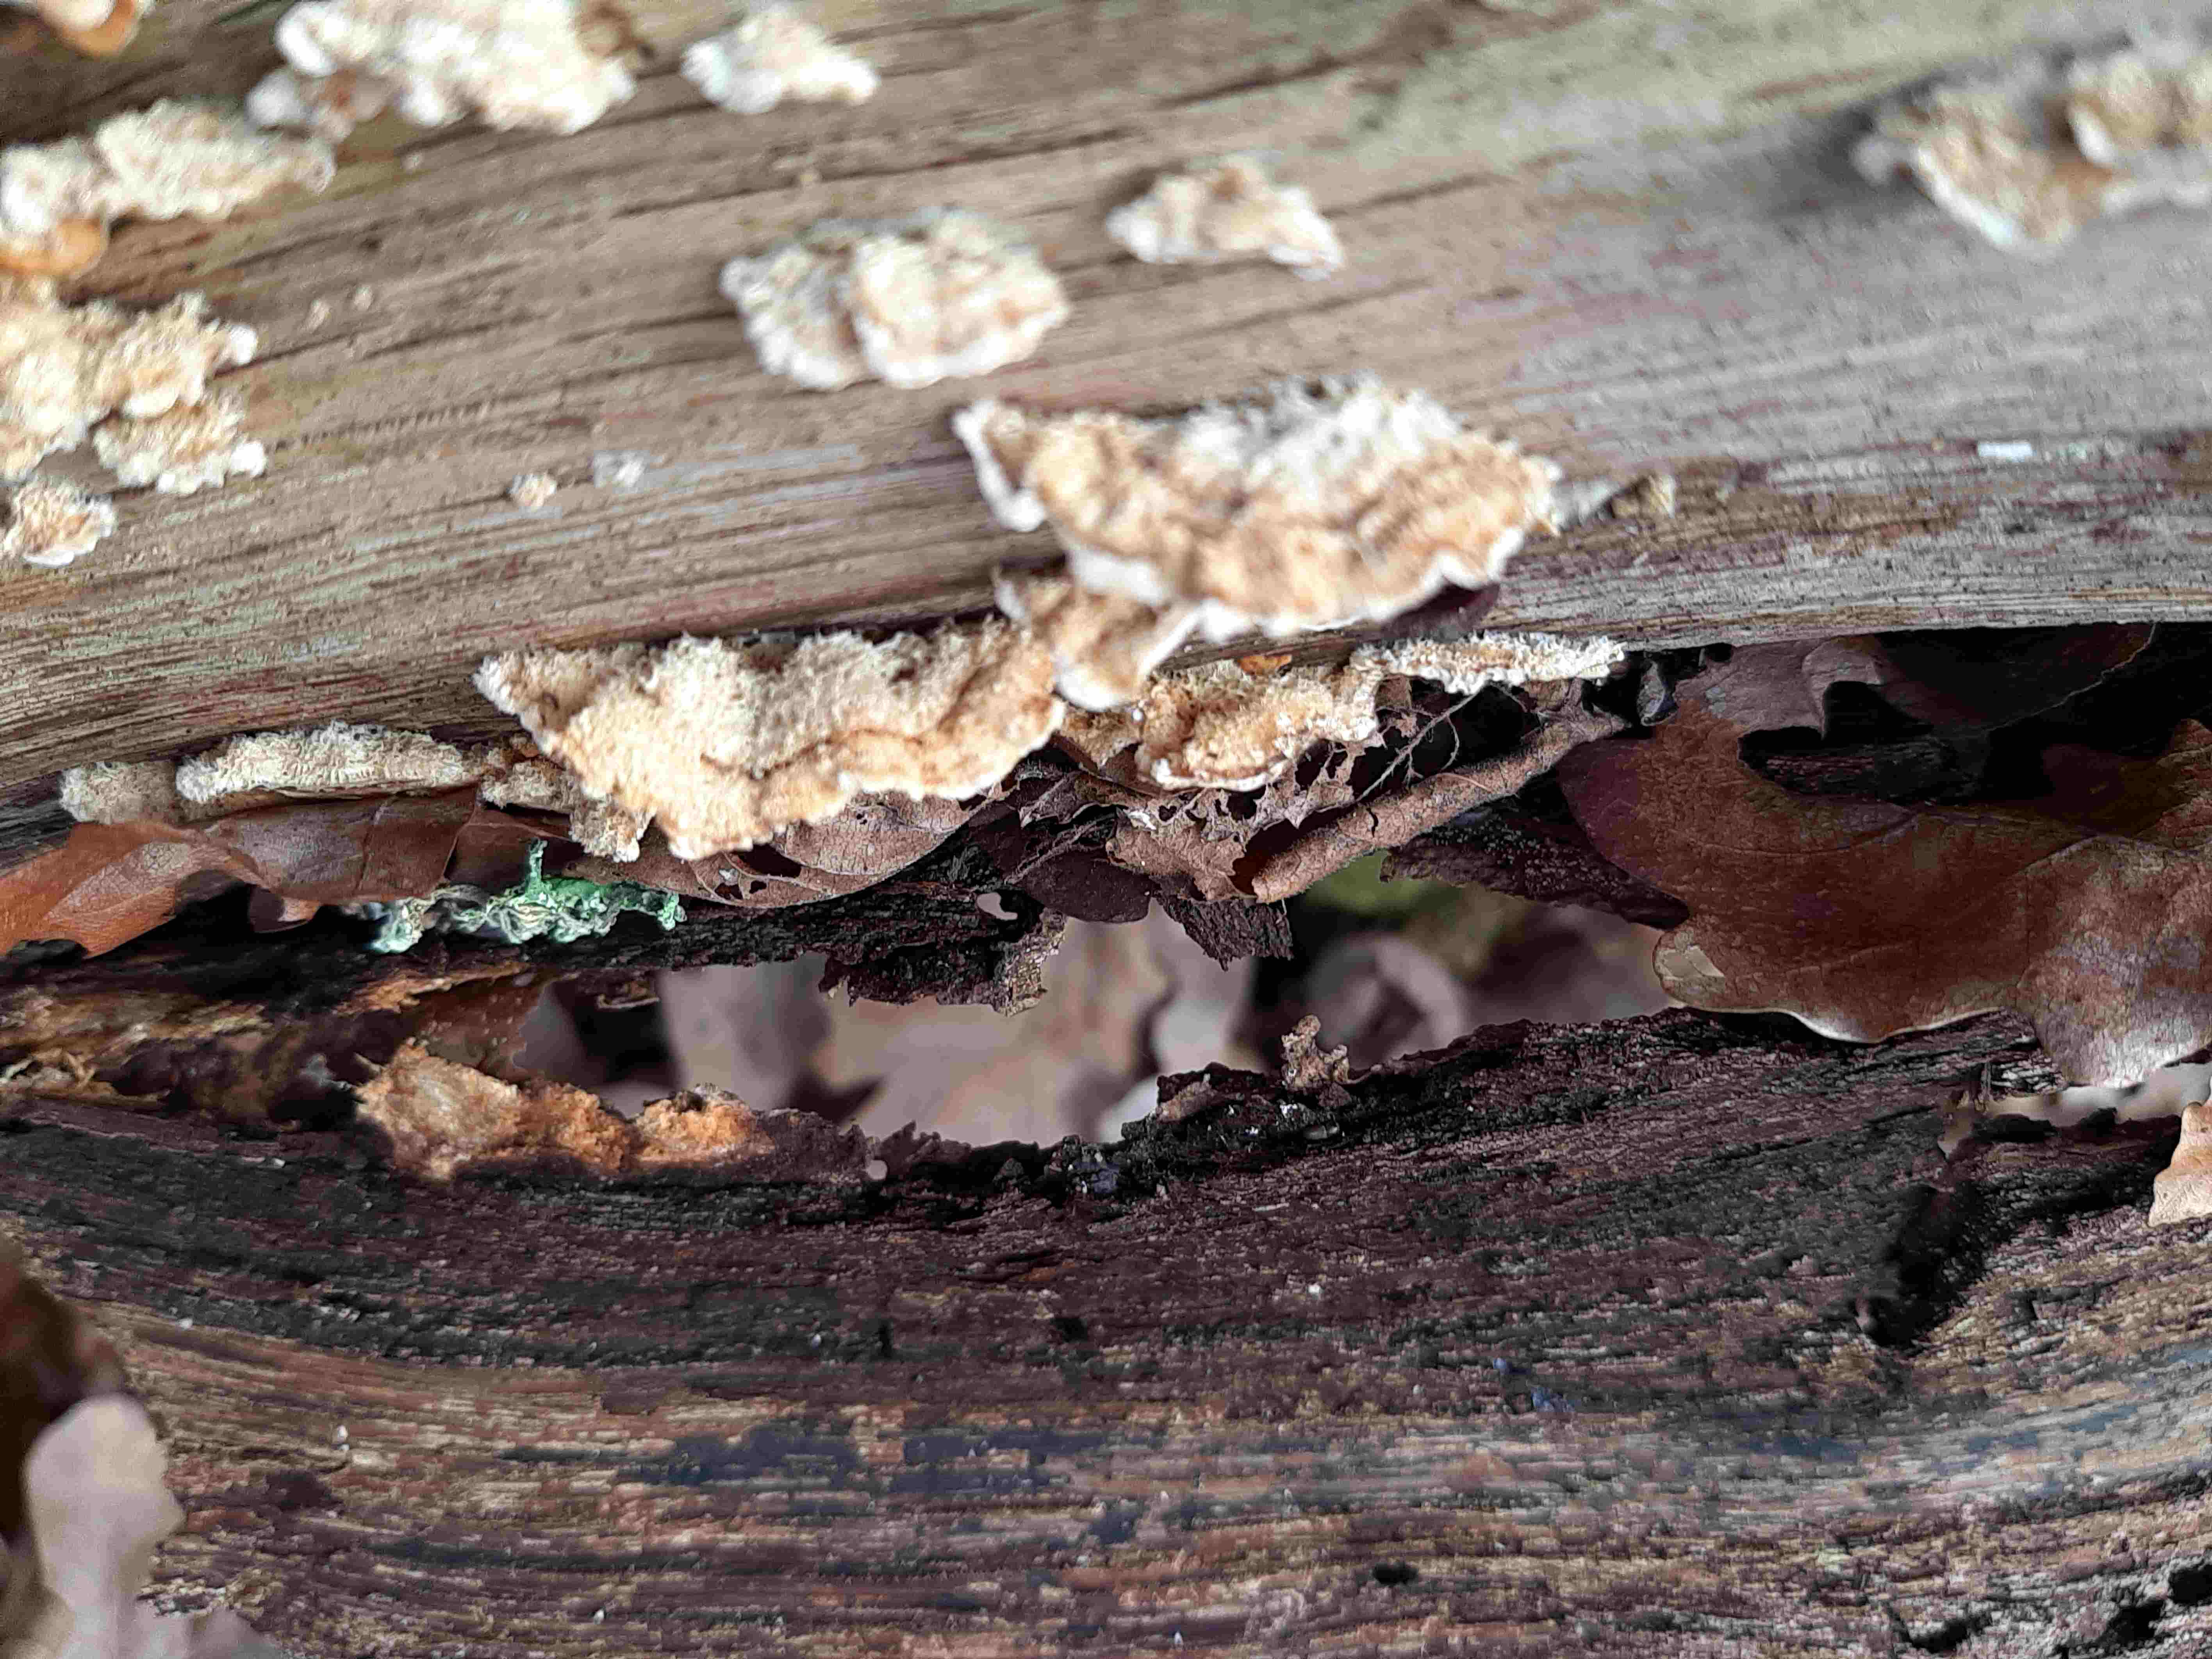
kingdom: Fungi
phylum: Basidiomycota
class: Agaricomycetes
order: Russulales
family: Stereaceae
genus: Stereum
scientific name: Stereum hirsutum
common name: håret lædersvamp
